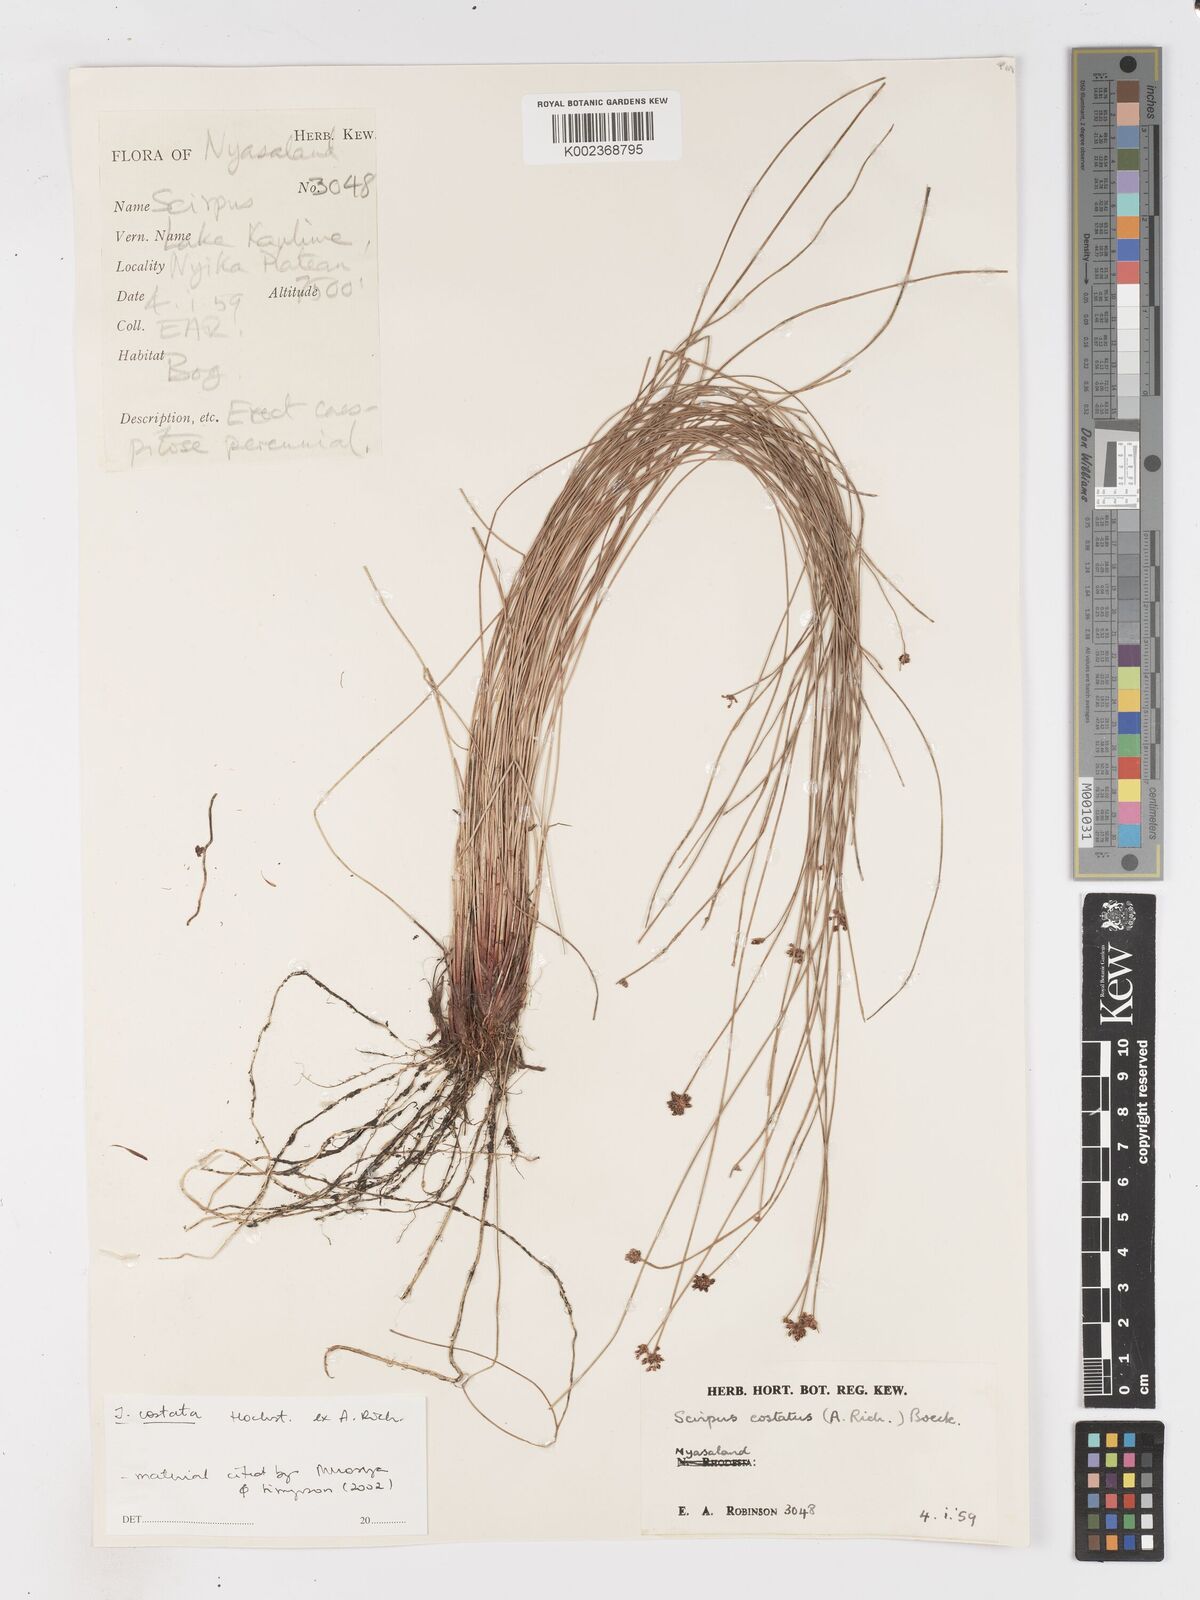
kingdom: Plantae
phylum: Tracheophyta
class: Liliopsida
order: Poales
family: Cyperaceae
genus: Isolepis
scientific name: Isolepis costata
